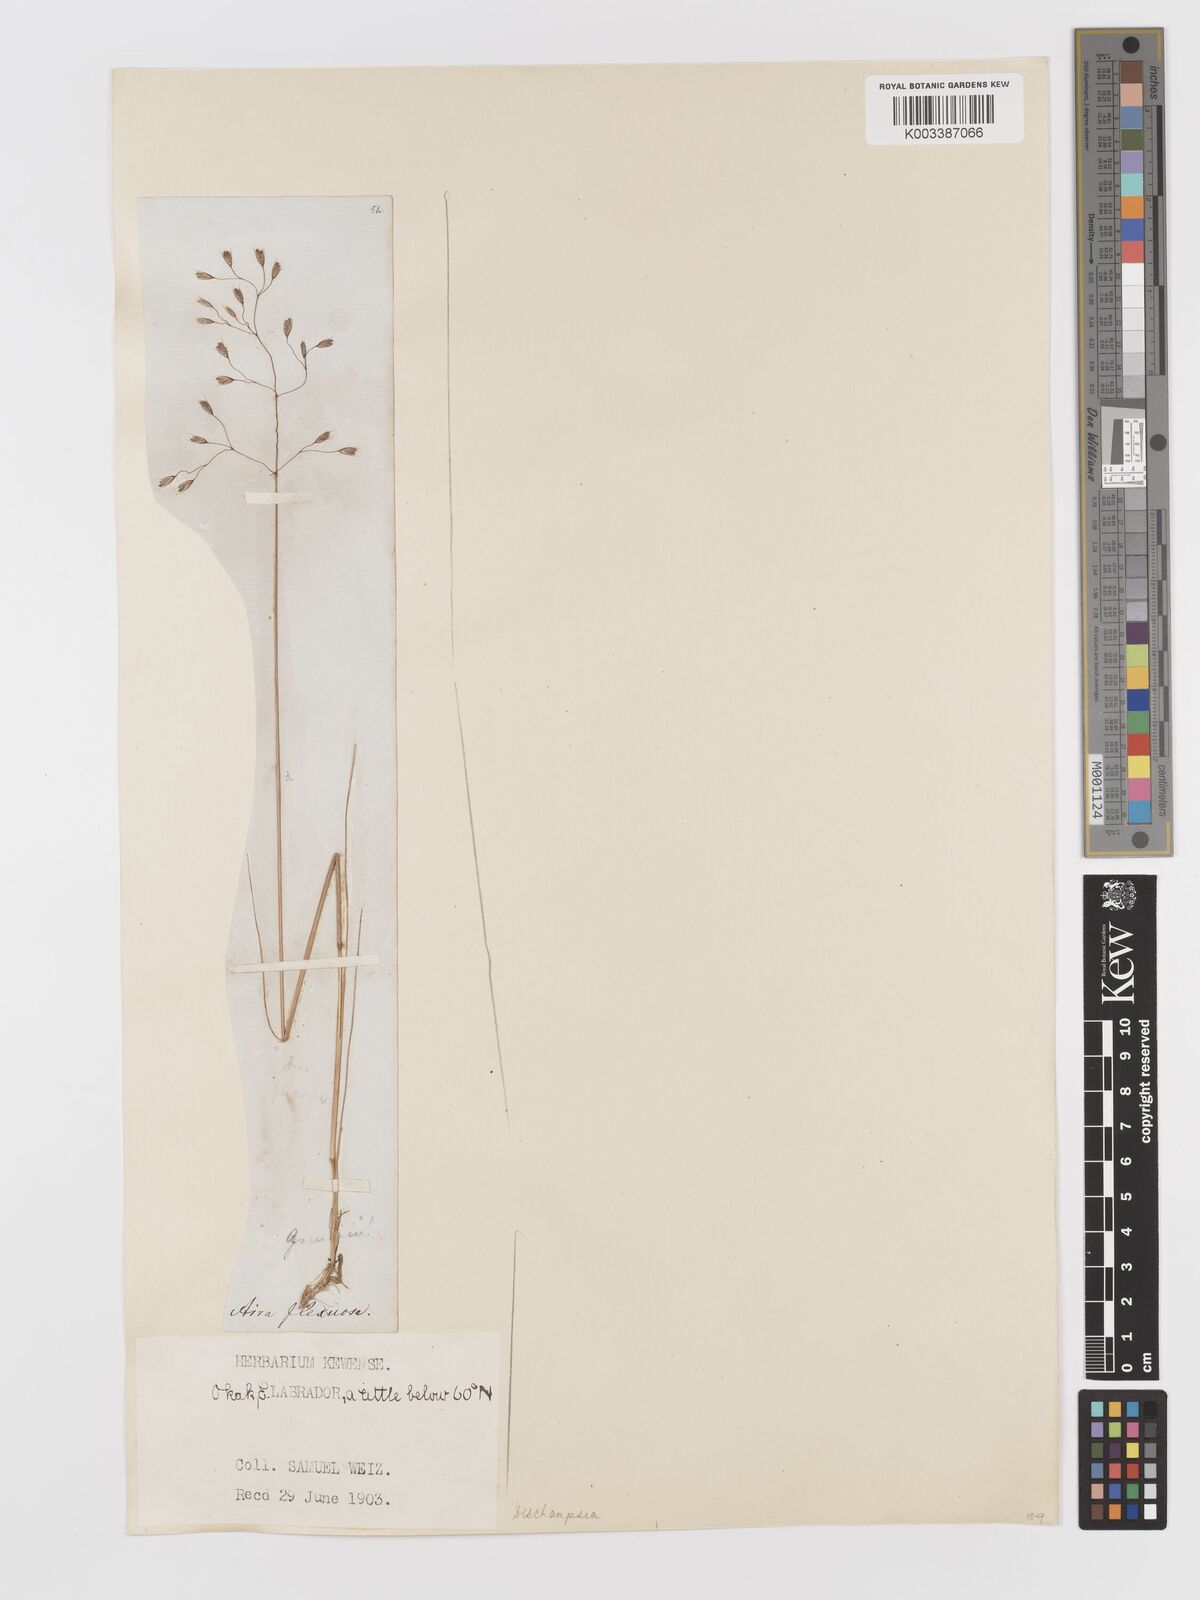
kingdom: Plantae
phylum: Tracheophyta
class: Liliopsida
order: Poales
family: Poaceae
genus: Avenella
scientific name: Avenella flexuosa
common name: Wavy hairgrass
